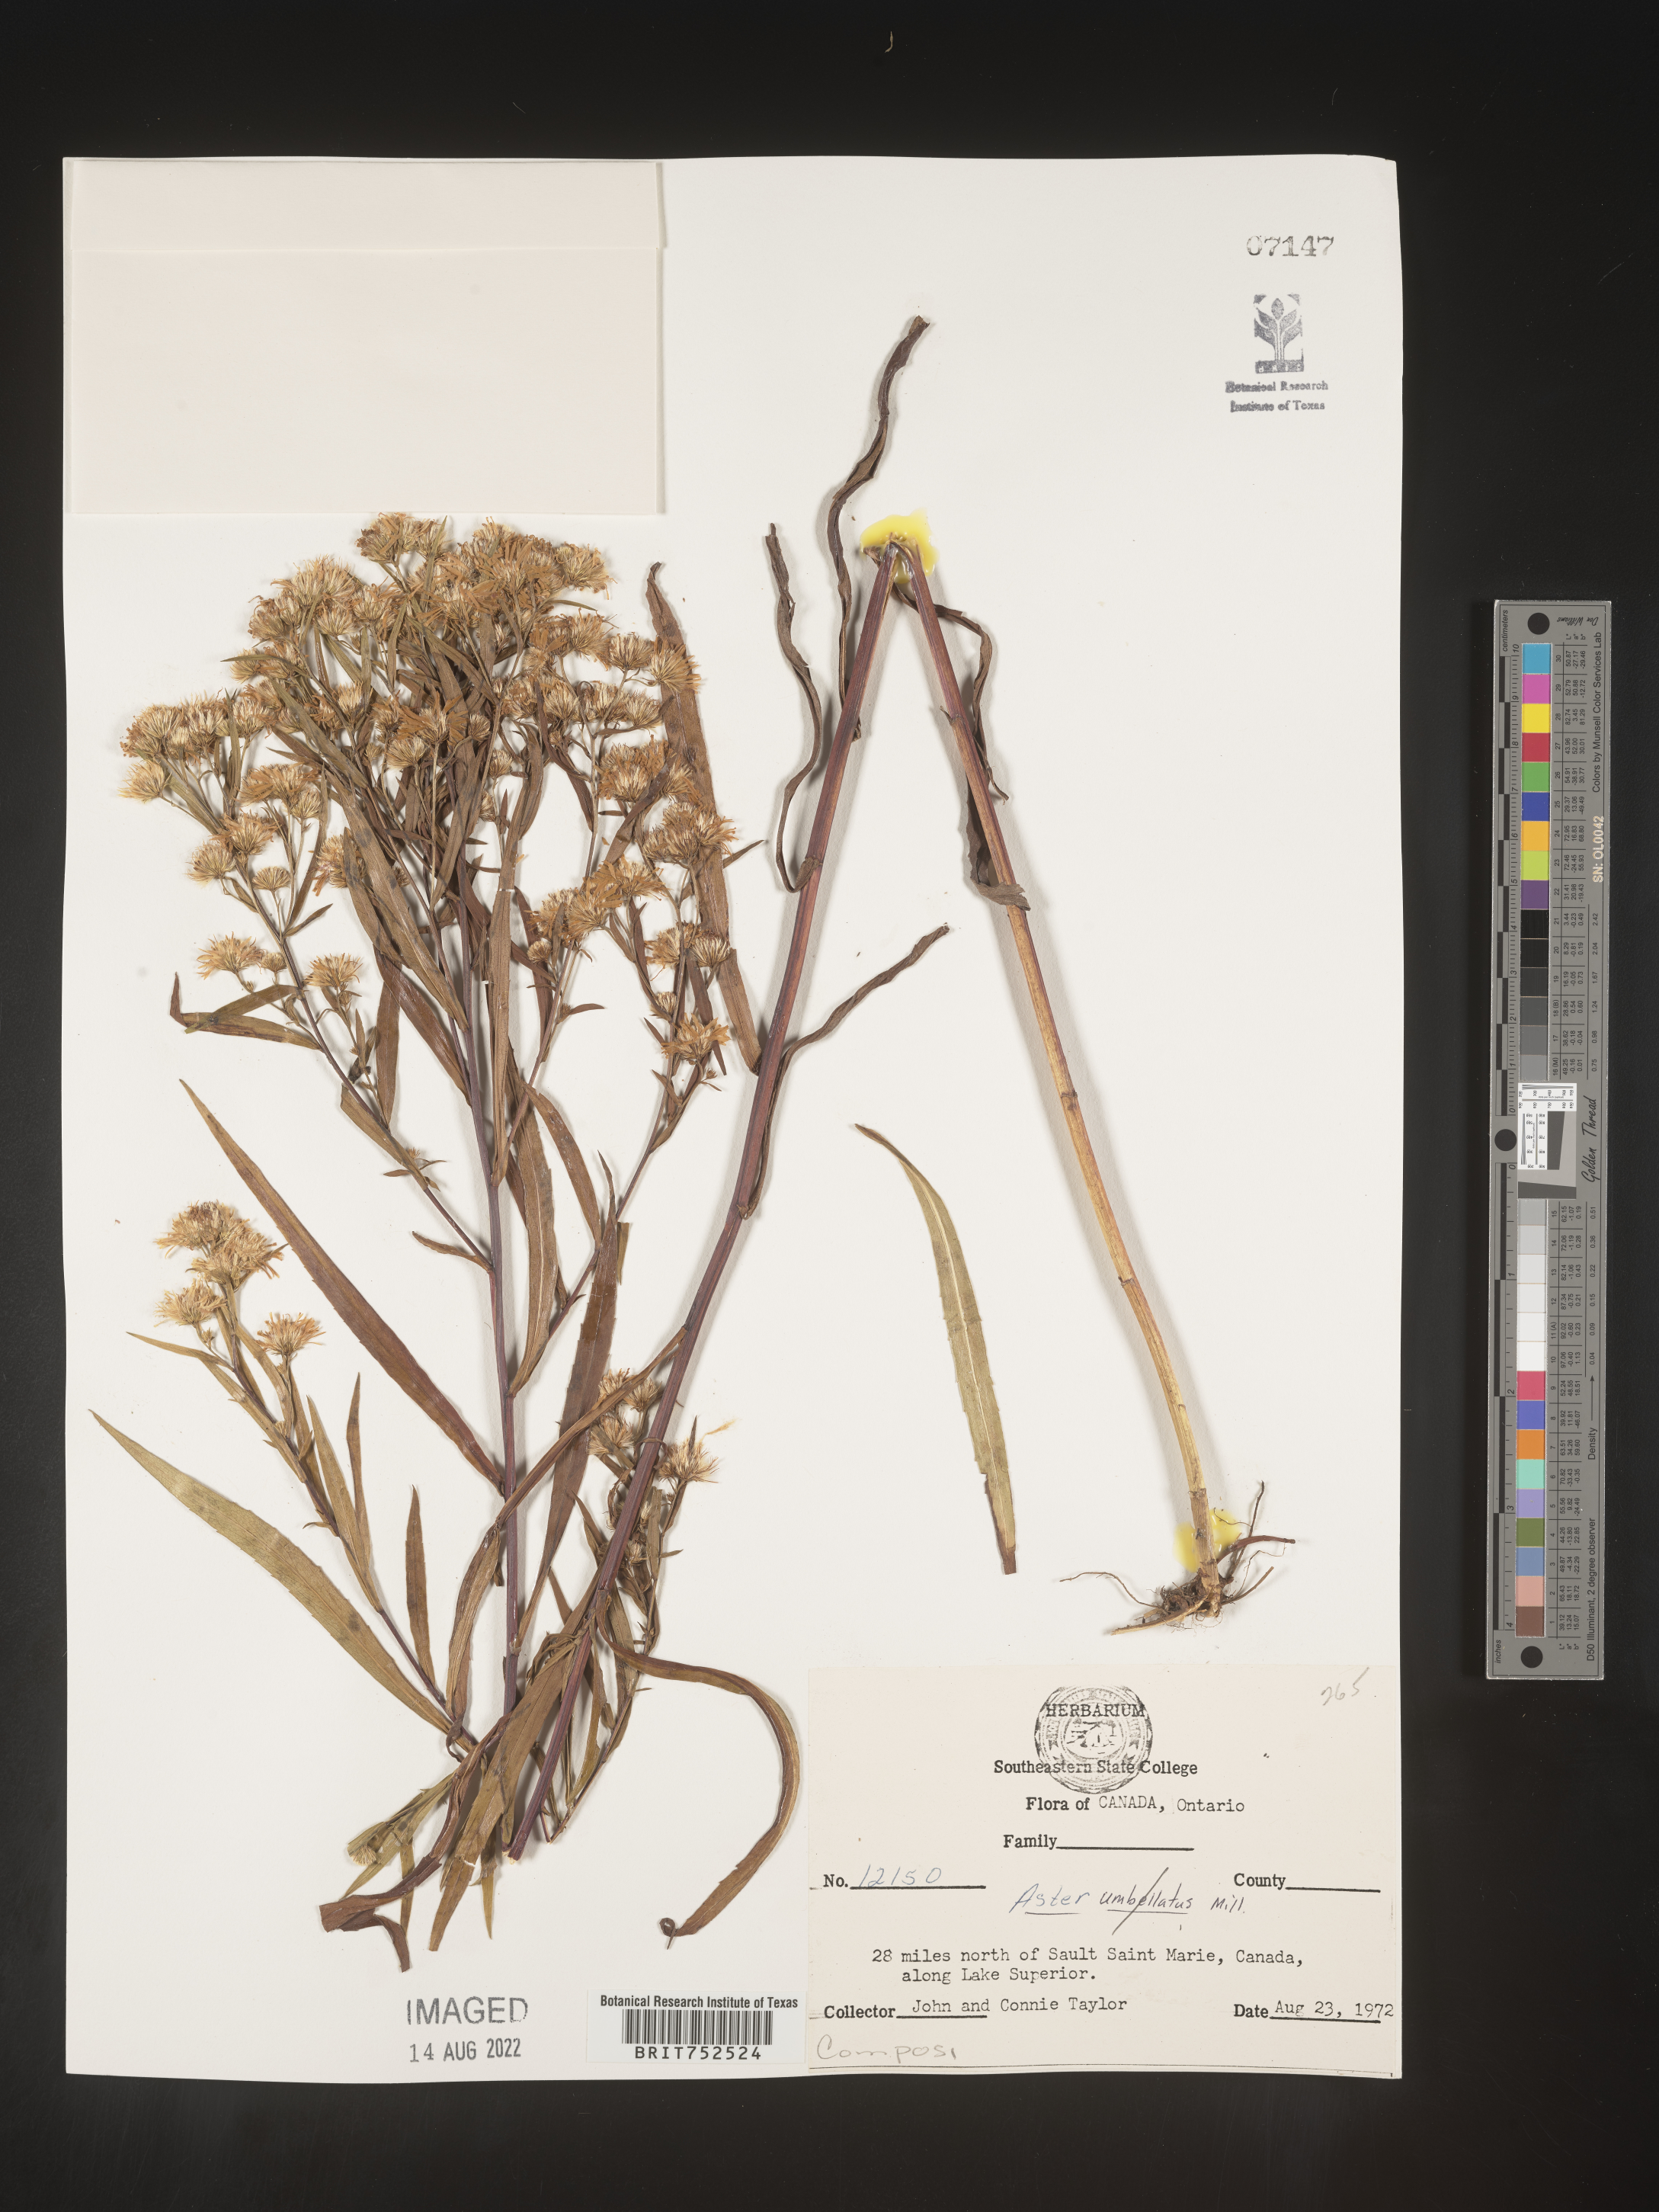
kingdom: Plantae
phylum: Tracheophyta
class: Magnoliopsida
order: Asterales
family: Asteraceae
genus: Symphyotrichum
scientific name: Symphyotrichum lanceolatum
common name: Panicled aster
